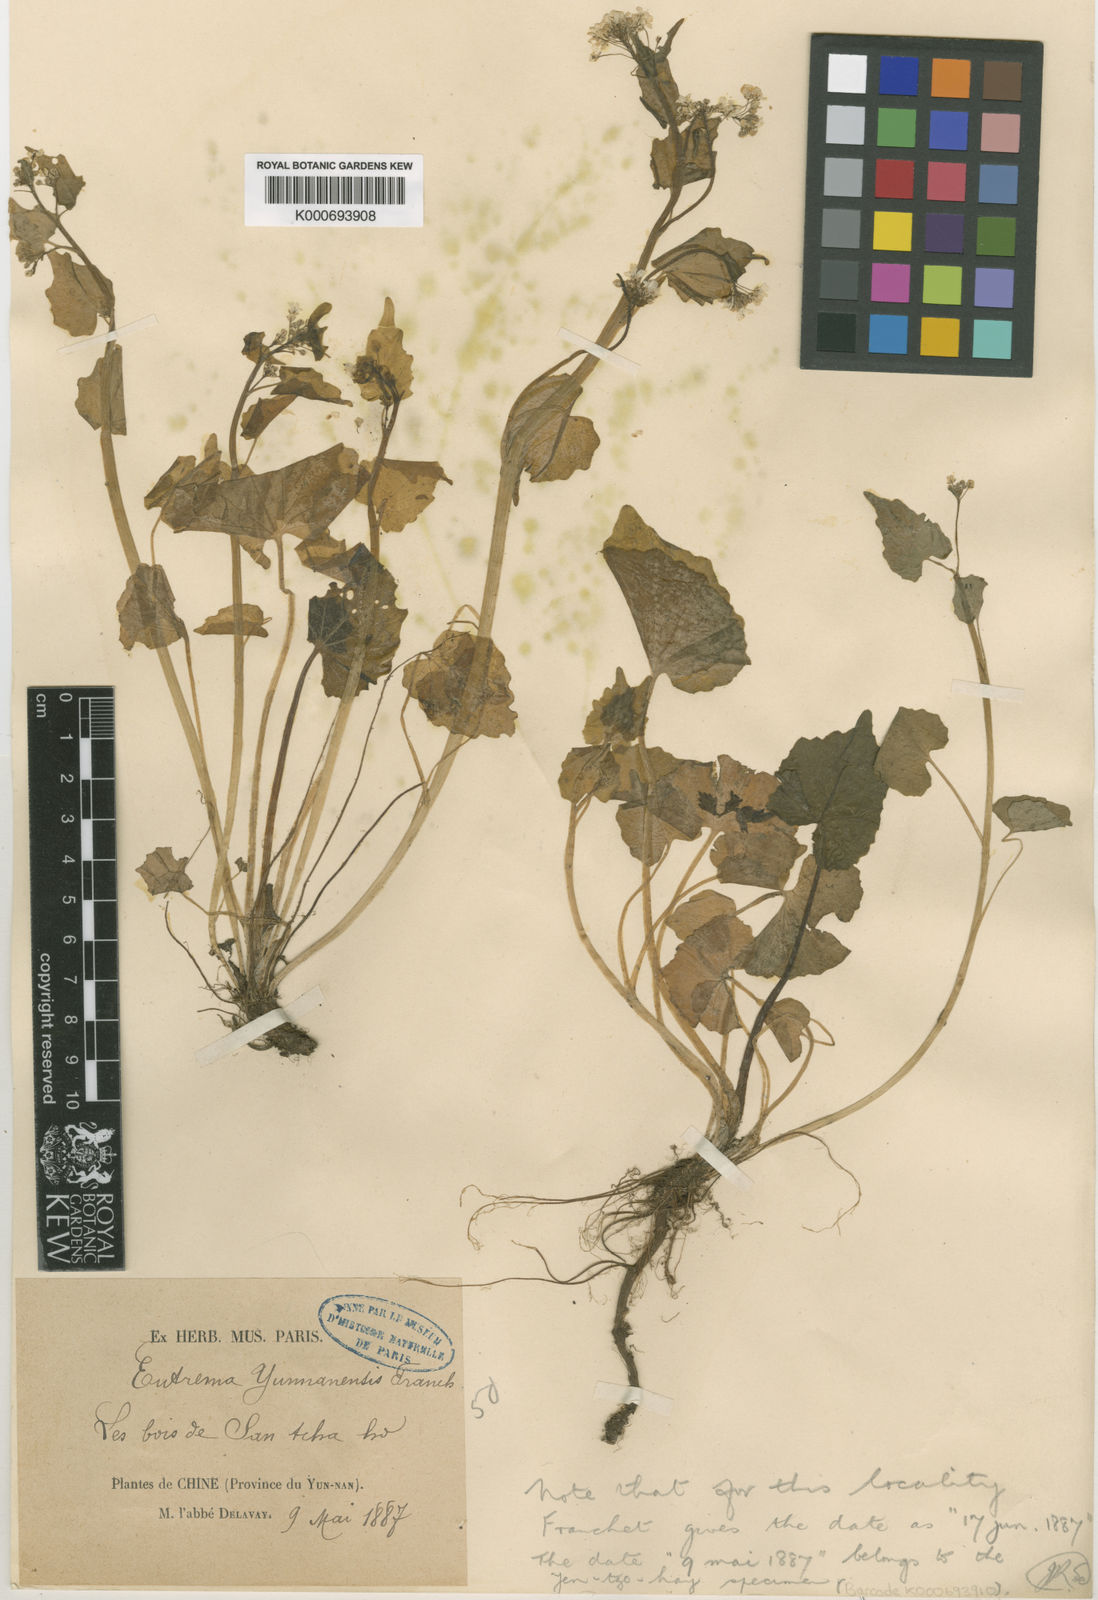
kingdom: Plantae
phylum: Tracheophyta
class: Magnoliopsida
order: Brassicales
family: Brassicaceae
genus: Eutrema
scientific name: Eutrema yunnanense
